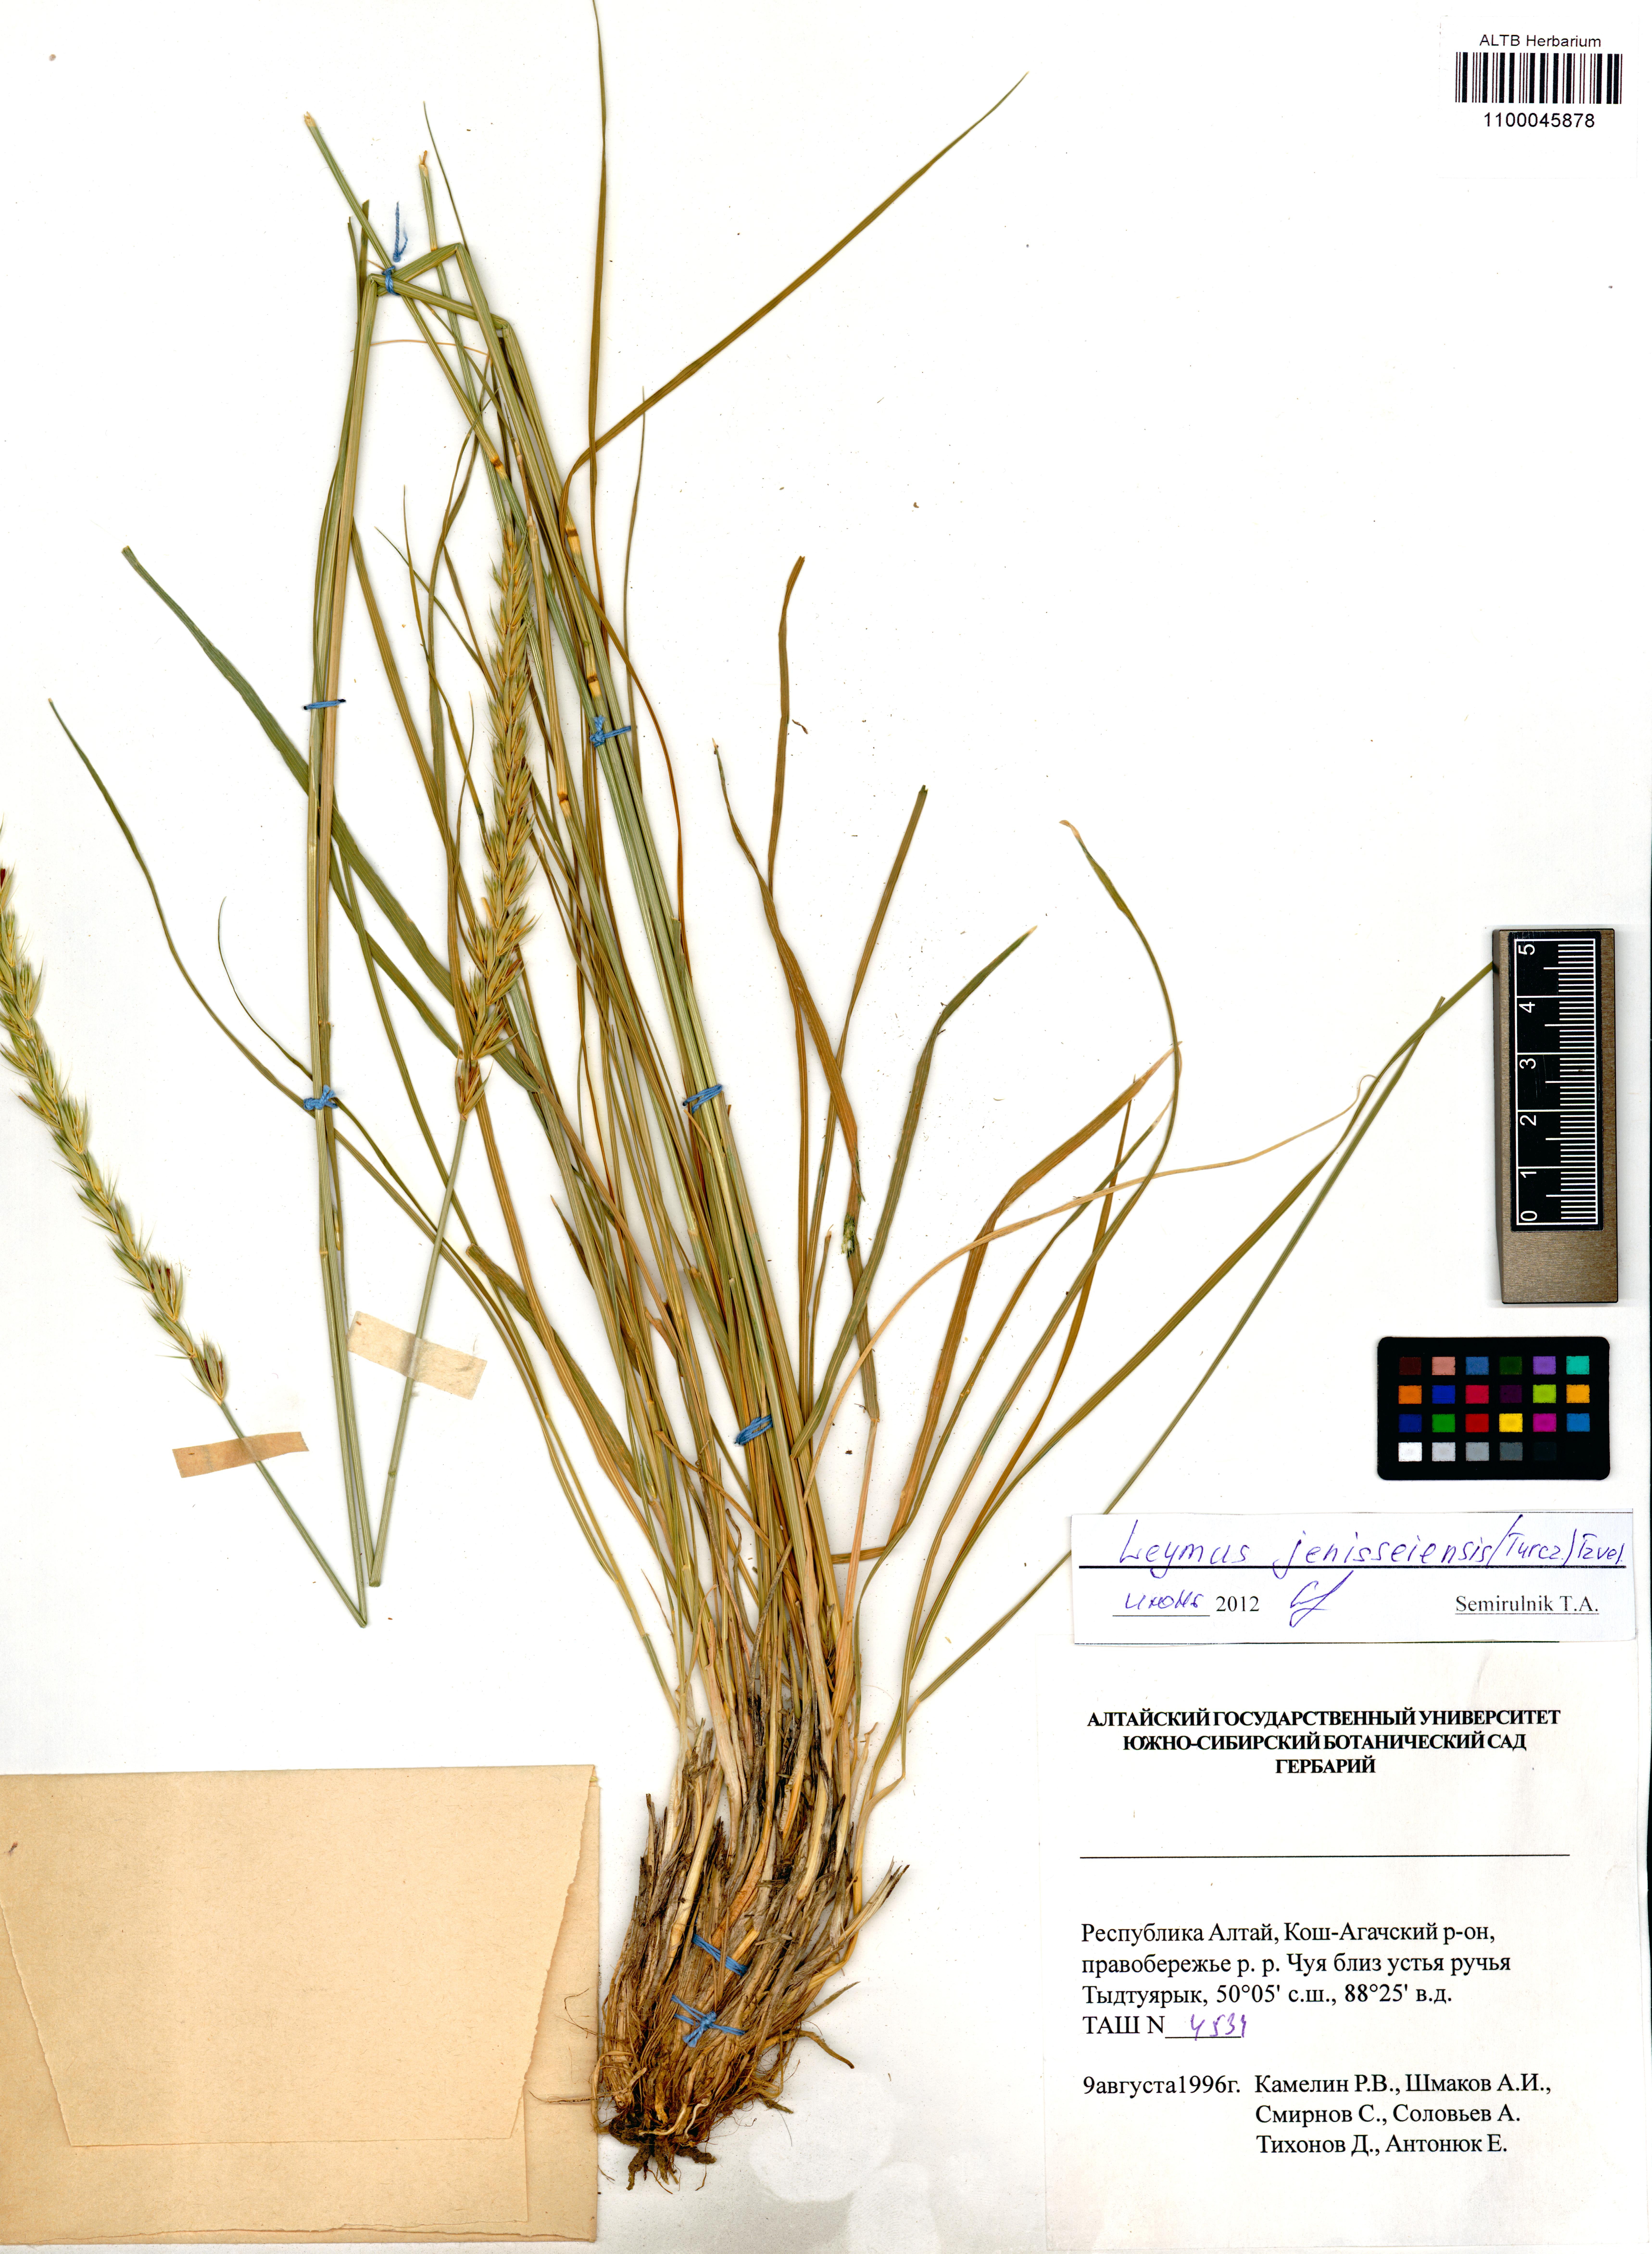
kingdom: Plantae
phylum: Tracheophyta
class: Liliopsida
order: Poales
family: Poaceae
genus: Leymus
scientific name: Leymus jenisseiensis
